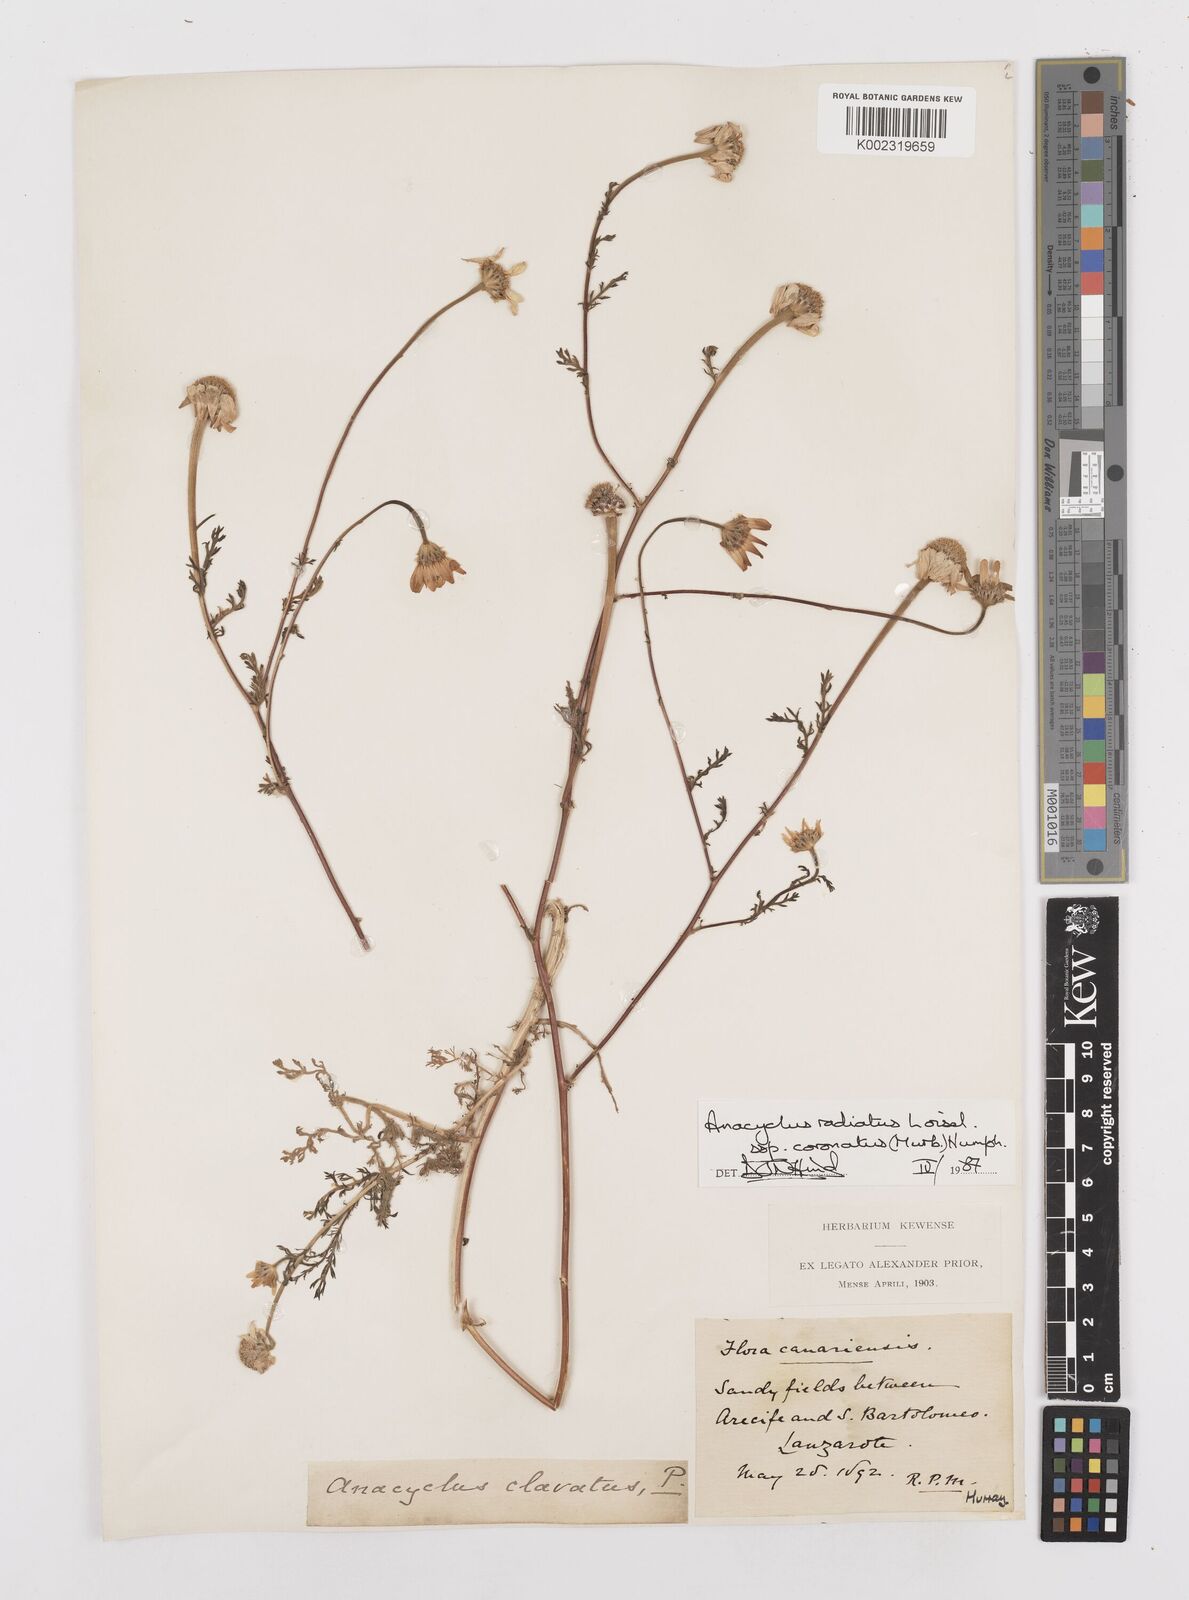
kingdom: Plantae
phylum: Tracheophyta
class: Magnoliopsida
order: Asterales
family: Asteraceae
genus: Anacyclus
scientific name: Anacyclus clavatus
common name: Whitebuttons
